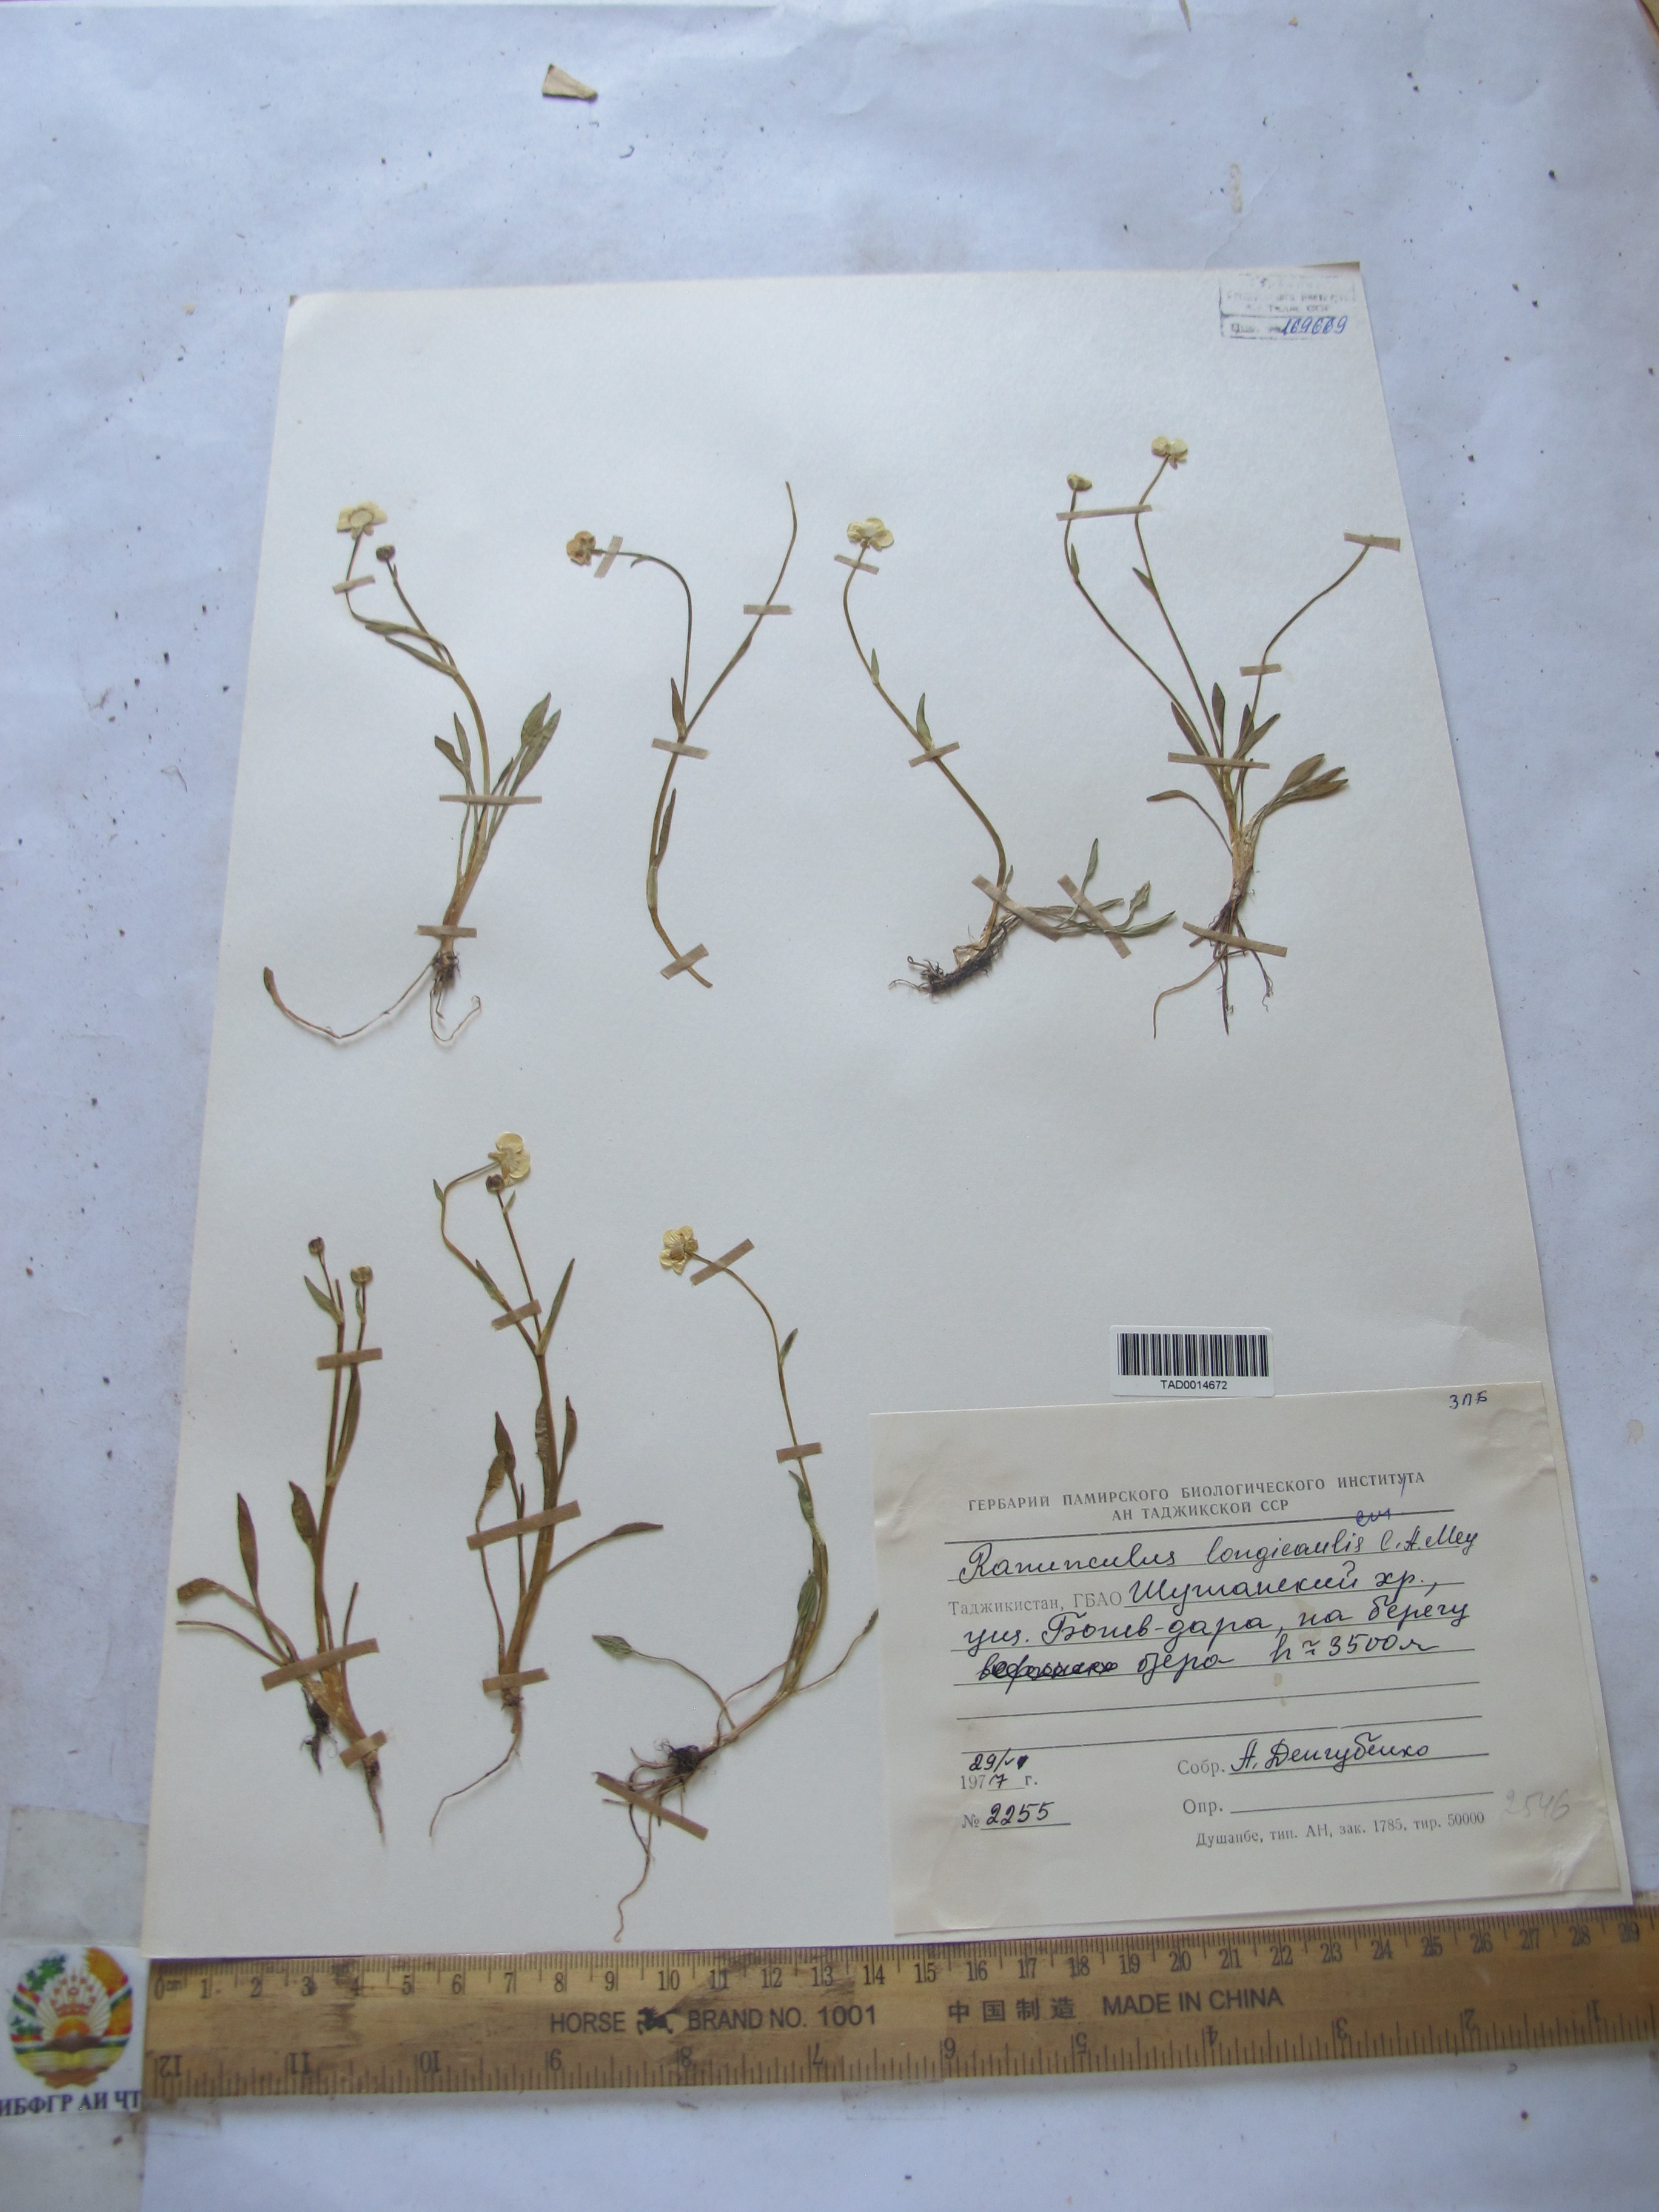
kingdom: Plantae
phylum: Tracheophyta
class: Magnoliopsida
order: Ranunculales
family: Ranunculaceae
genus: Ranunculus
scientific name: Ranunculus longicaulis
